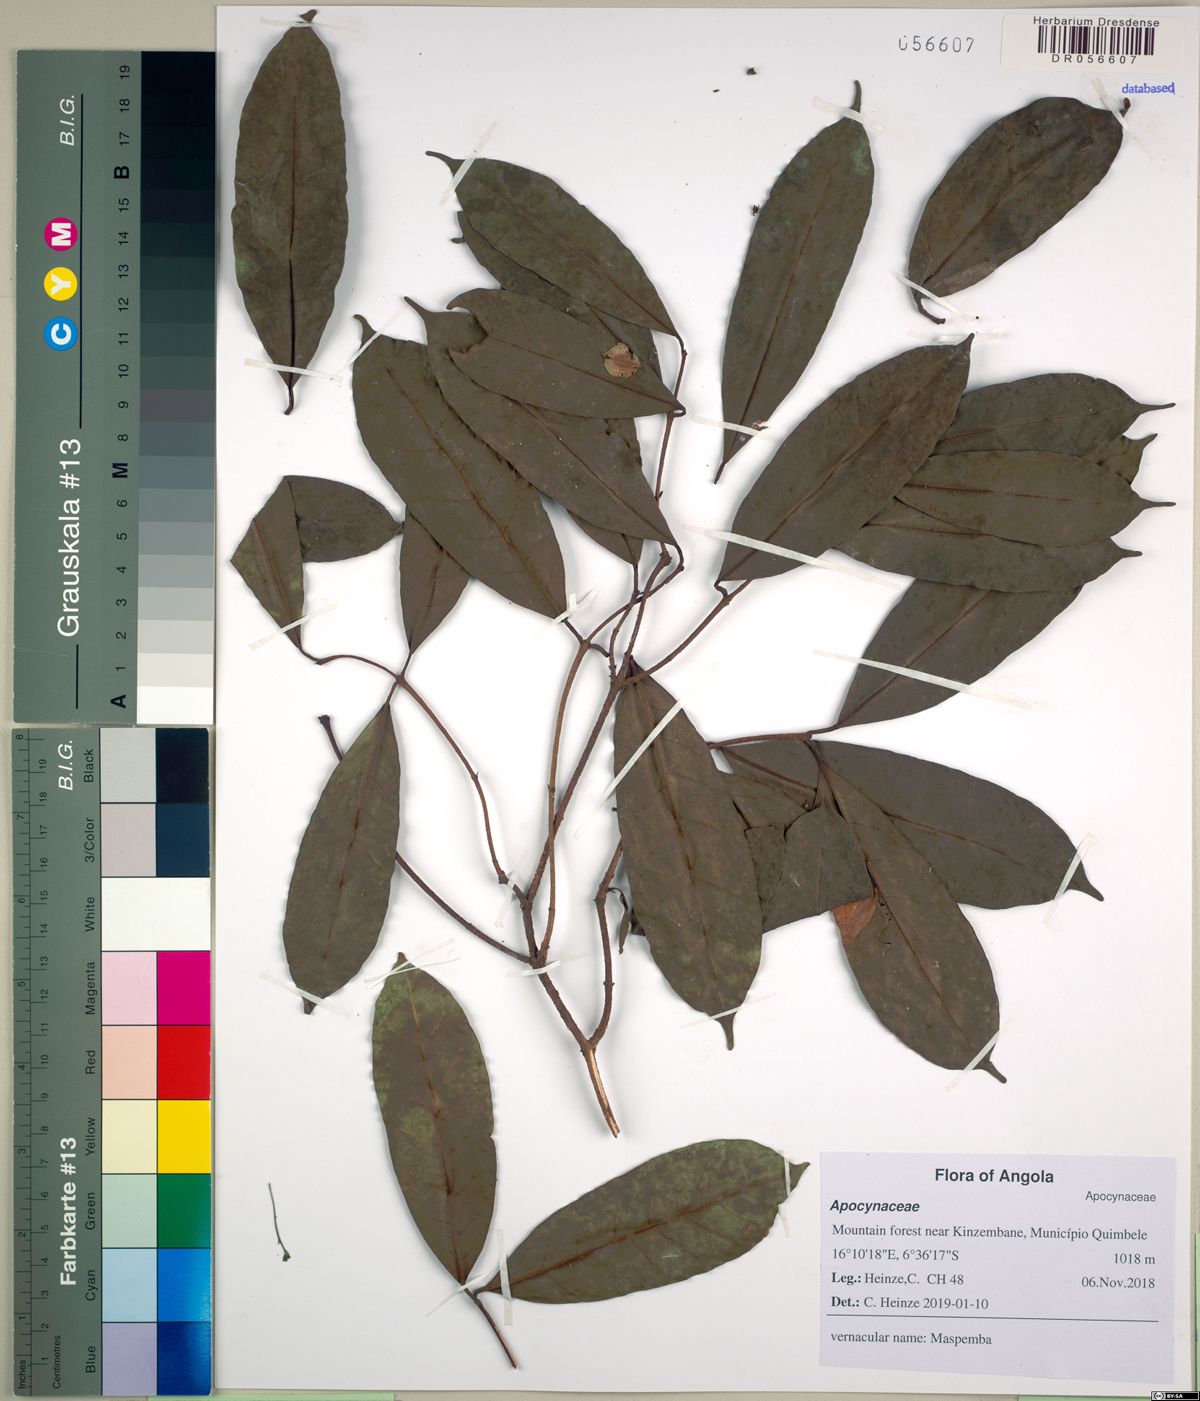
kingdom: Plantae
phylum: Tracheophyta
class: Magnoliopsida
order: Gentianales
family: Apocynaceae
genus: Landolphia
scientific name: Landolphia robustior
